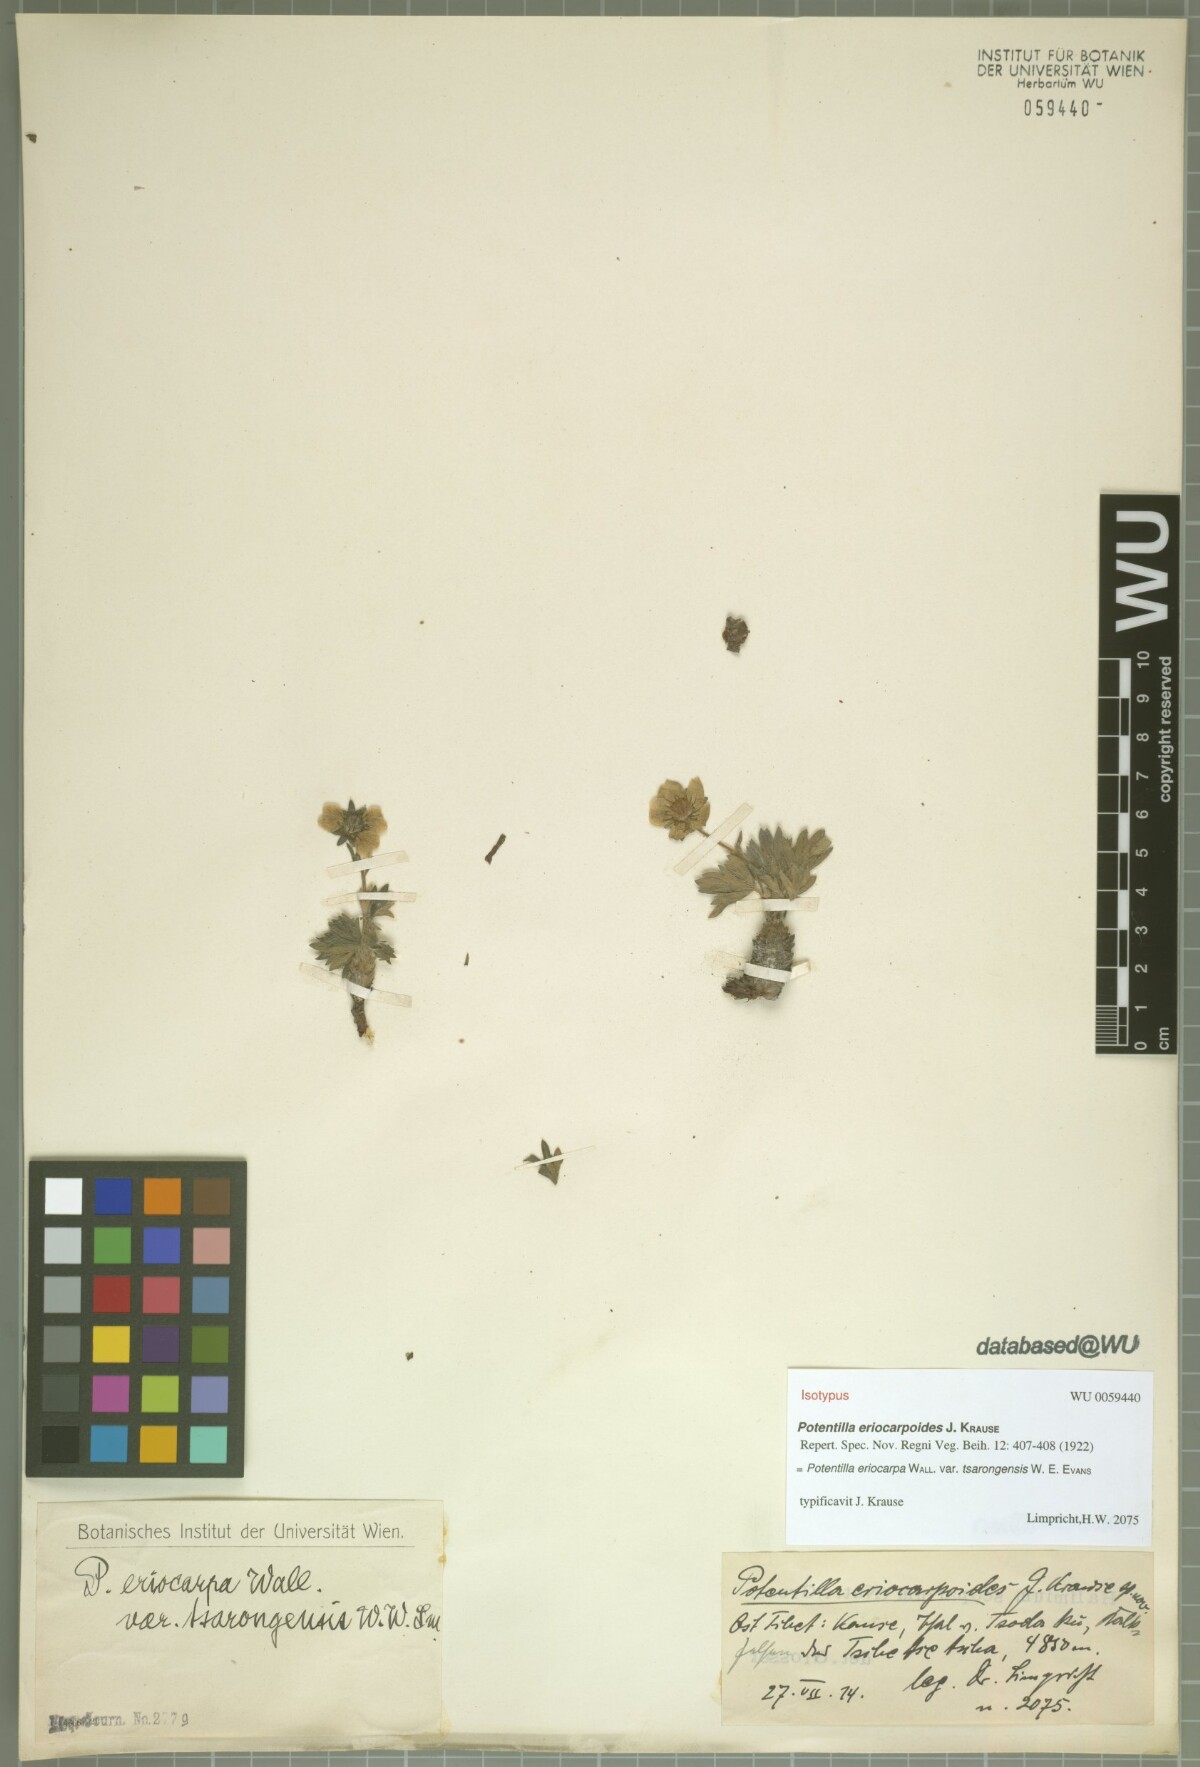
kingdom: Plantae
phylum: Tracheophyta
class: Magnoliopsida
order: Rosales
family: Rosaceae
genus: Potentilla
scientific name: Potentilla eriocarpa
